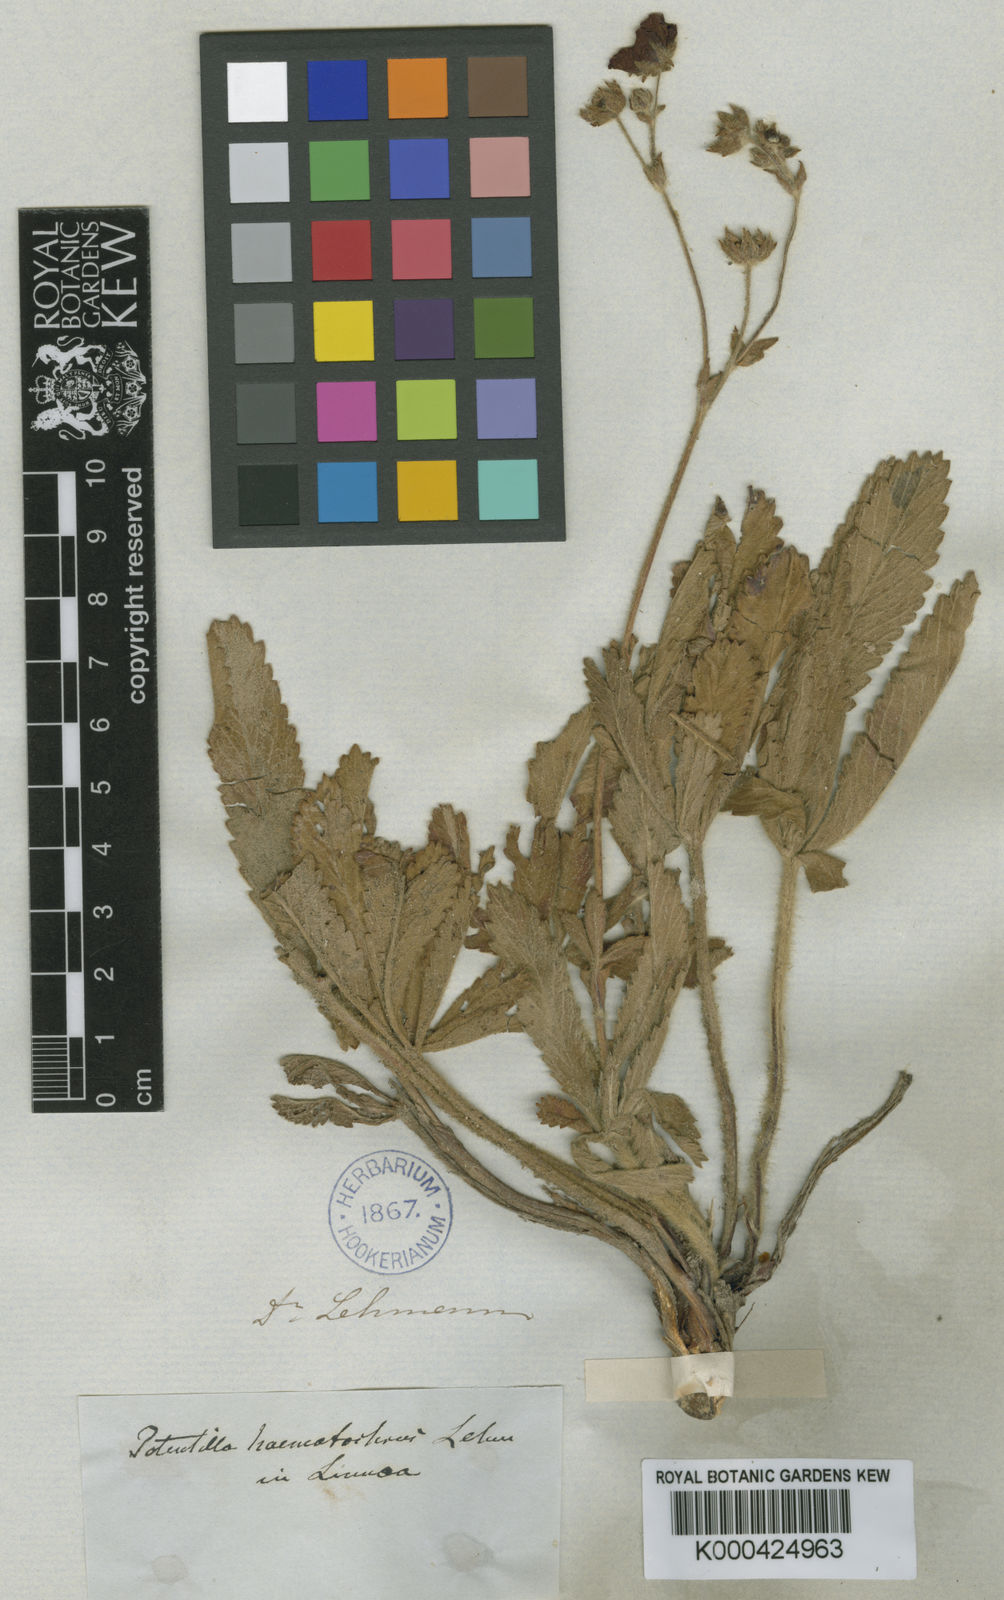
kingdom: Plantae
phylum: Tracheophyta
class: Magnoliopsida
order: Rosales
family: Rosaceae
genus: Potentilla
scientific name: Potentilla
